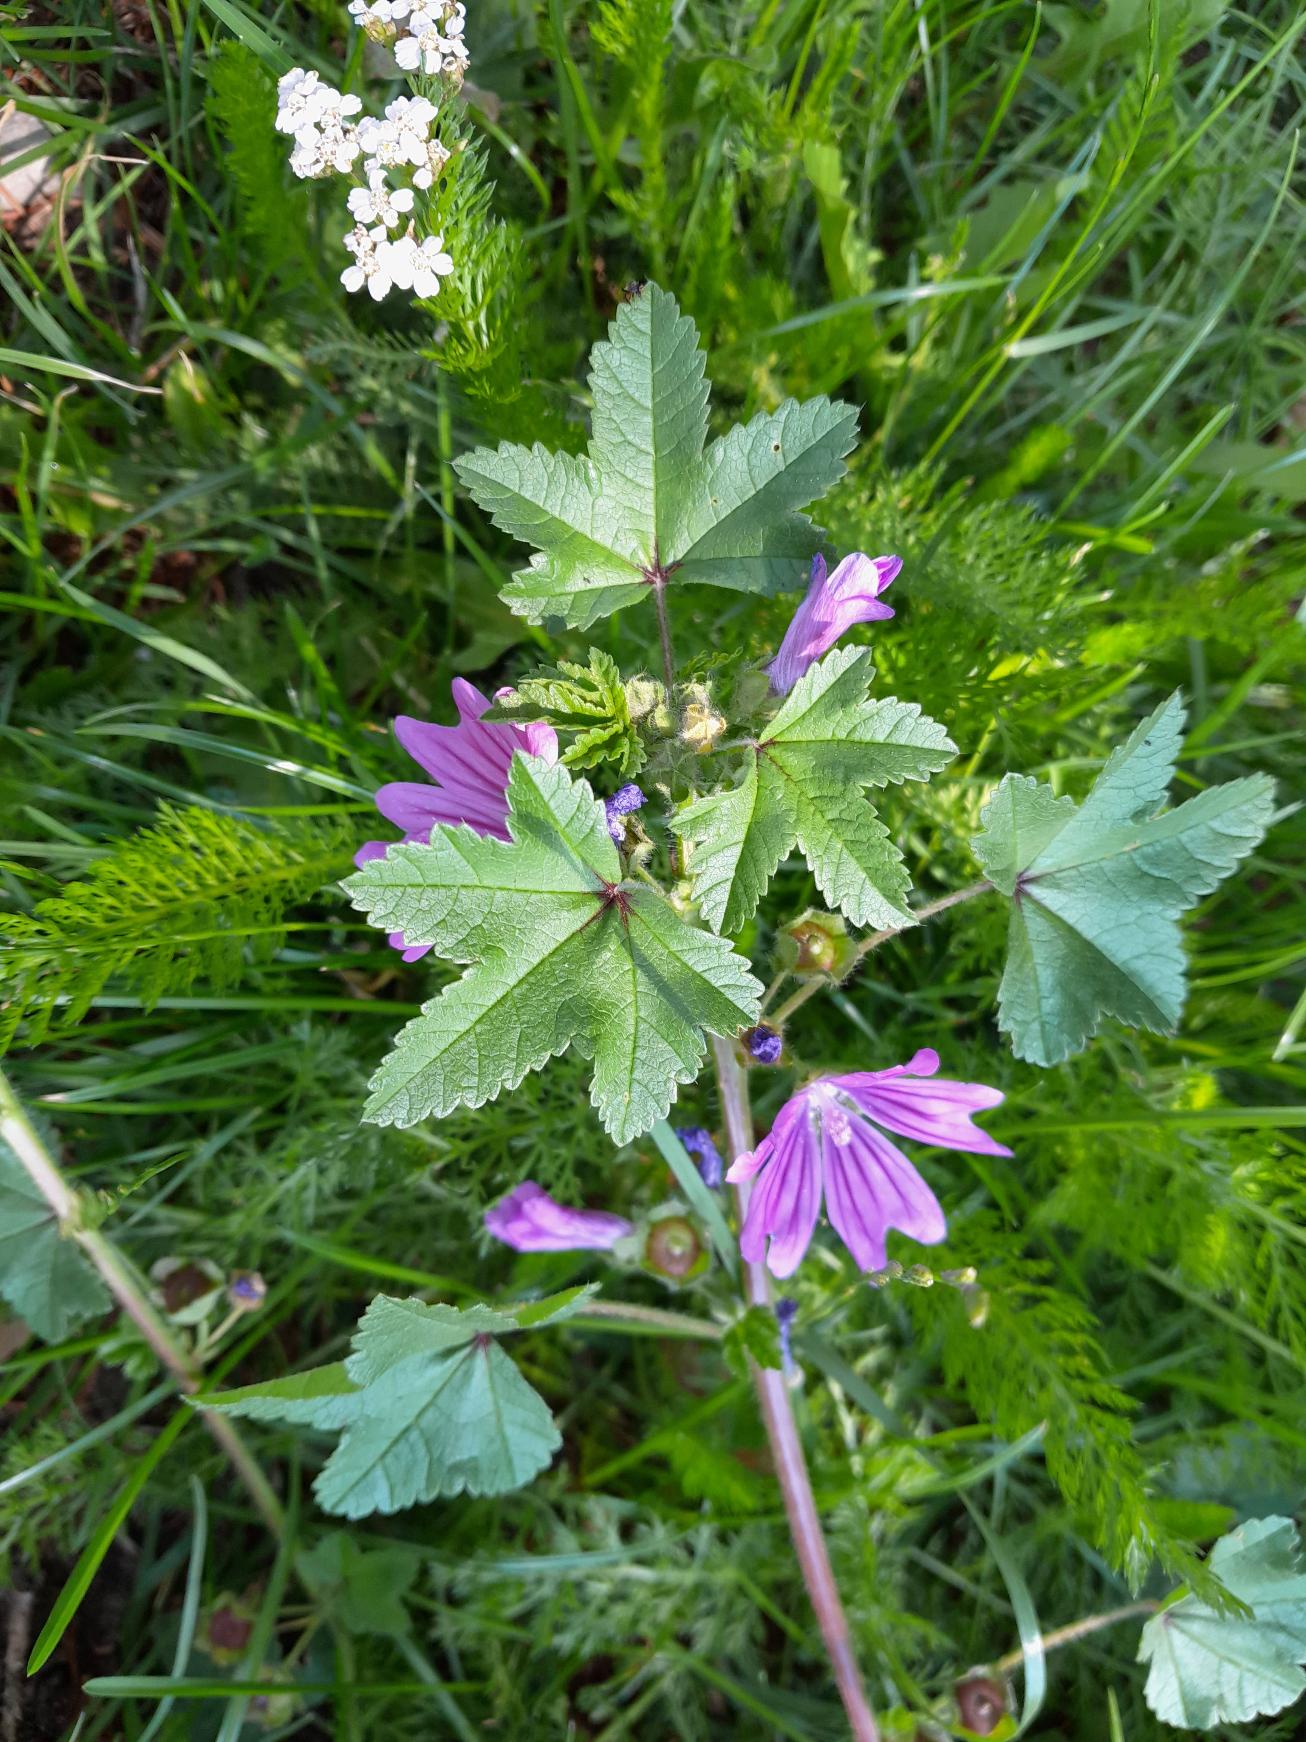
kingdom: Plantae
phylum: Tracheophyta
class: Magnoliopsida
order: Malvales
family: Malvaceae
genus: Malva
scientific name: Malva sylvestris
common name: Almindelig katost
